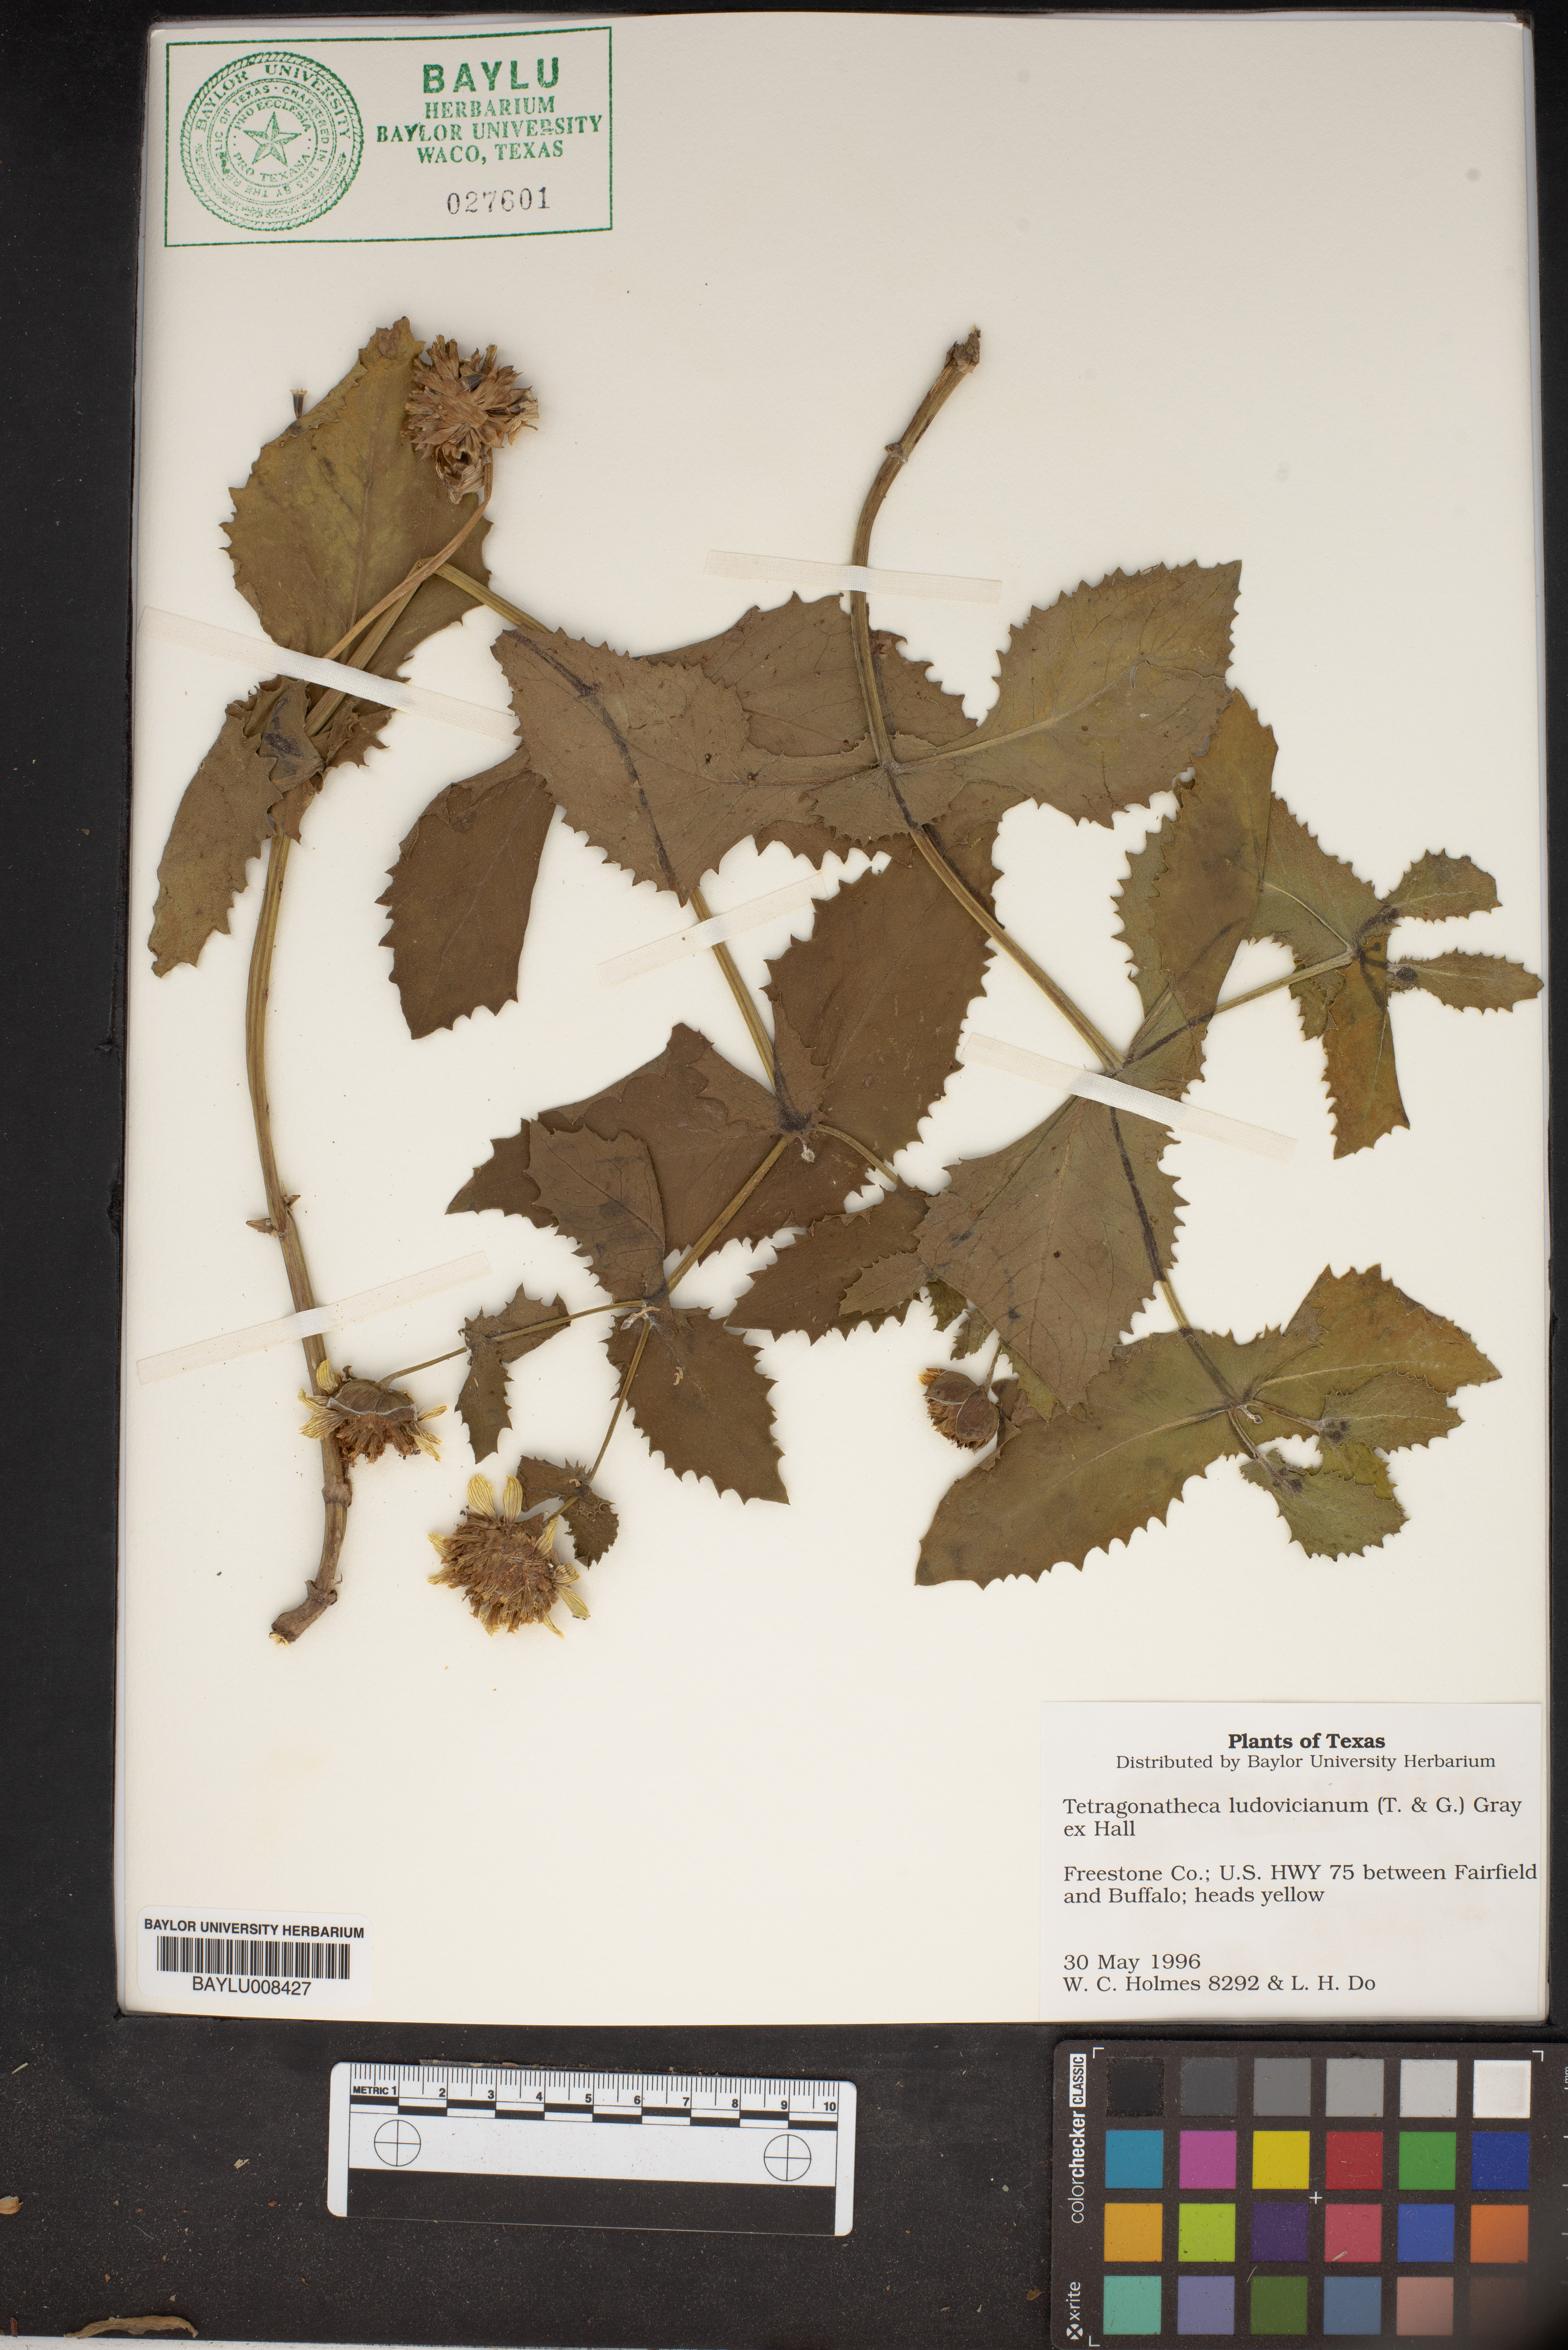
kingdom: Plantae
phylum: Tracheophyta
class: Magnoliopsida
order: Asterales
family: Asteraceae
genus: Tetragonotheca
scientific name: Tetragonotheca ludoviciana
